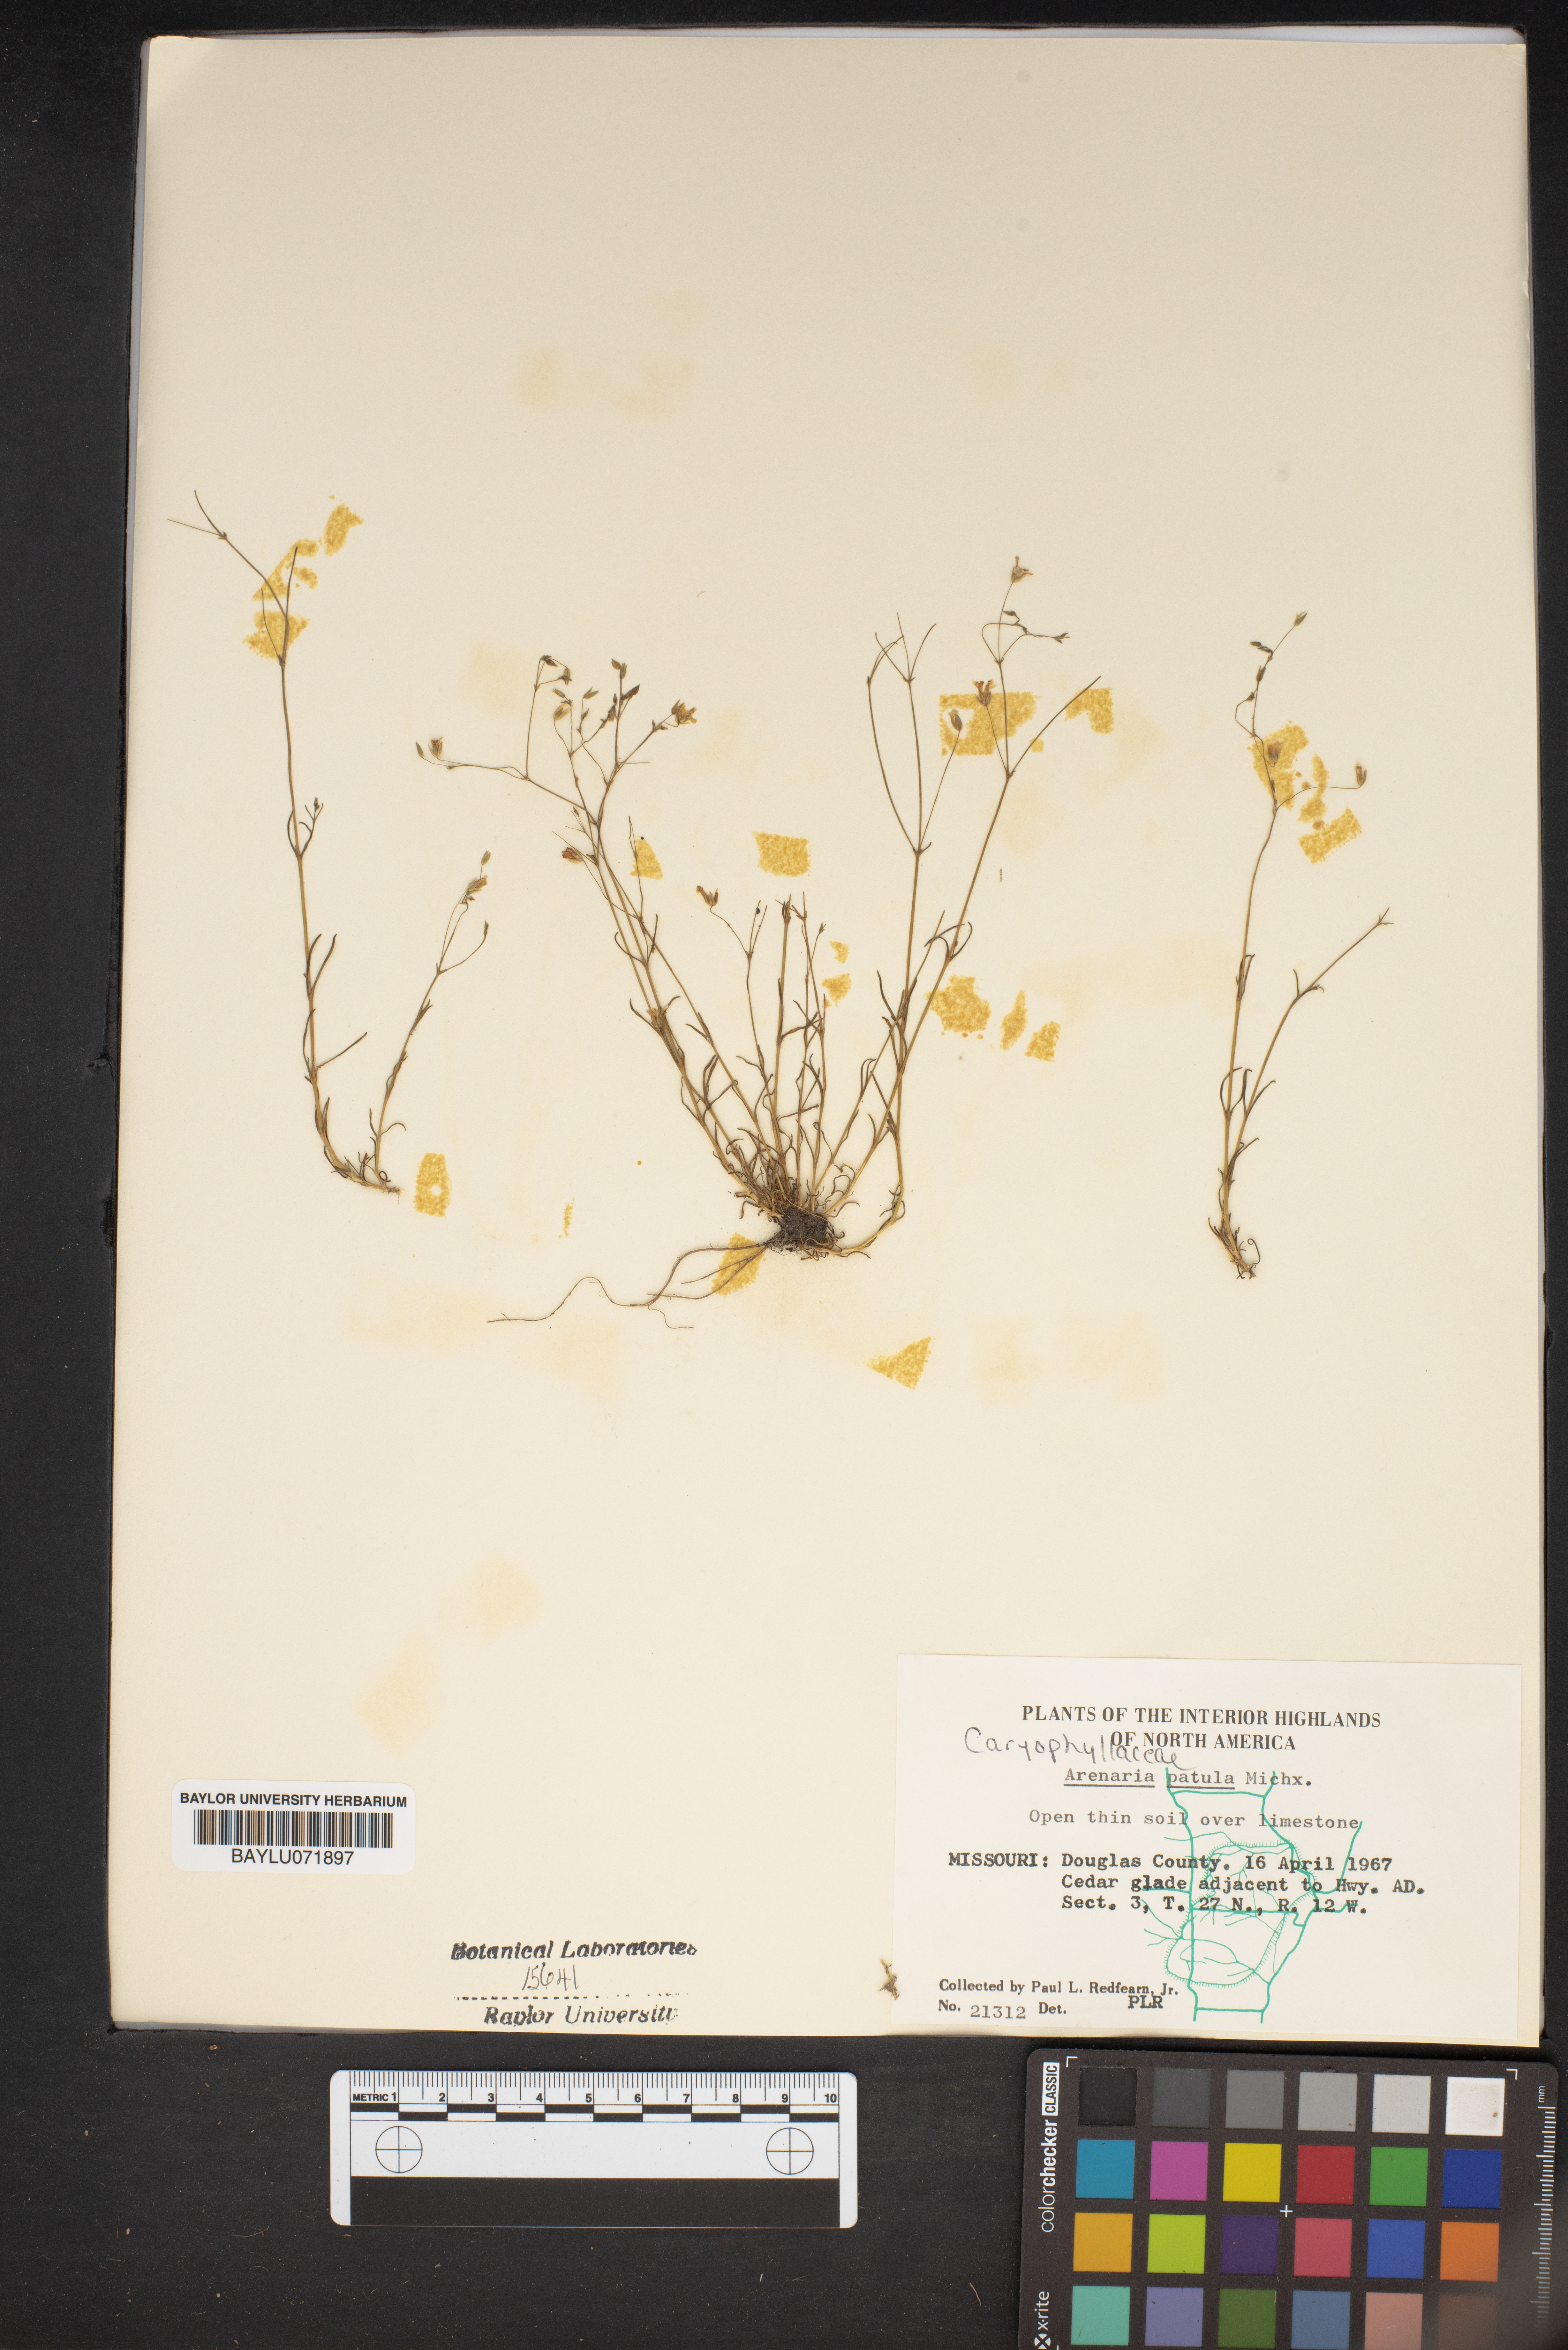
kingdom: Plantae
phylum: Tracheophyta
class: Magnoliopsida
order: Caryophyllales
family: Caryophyllaceae
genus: Mononeuria
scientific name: Mononeuria patula
